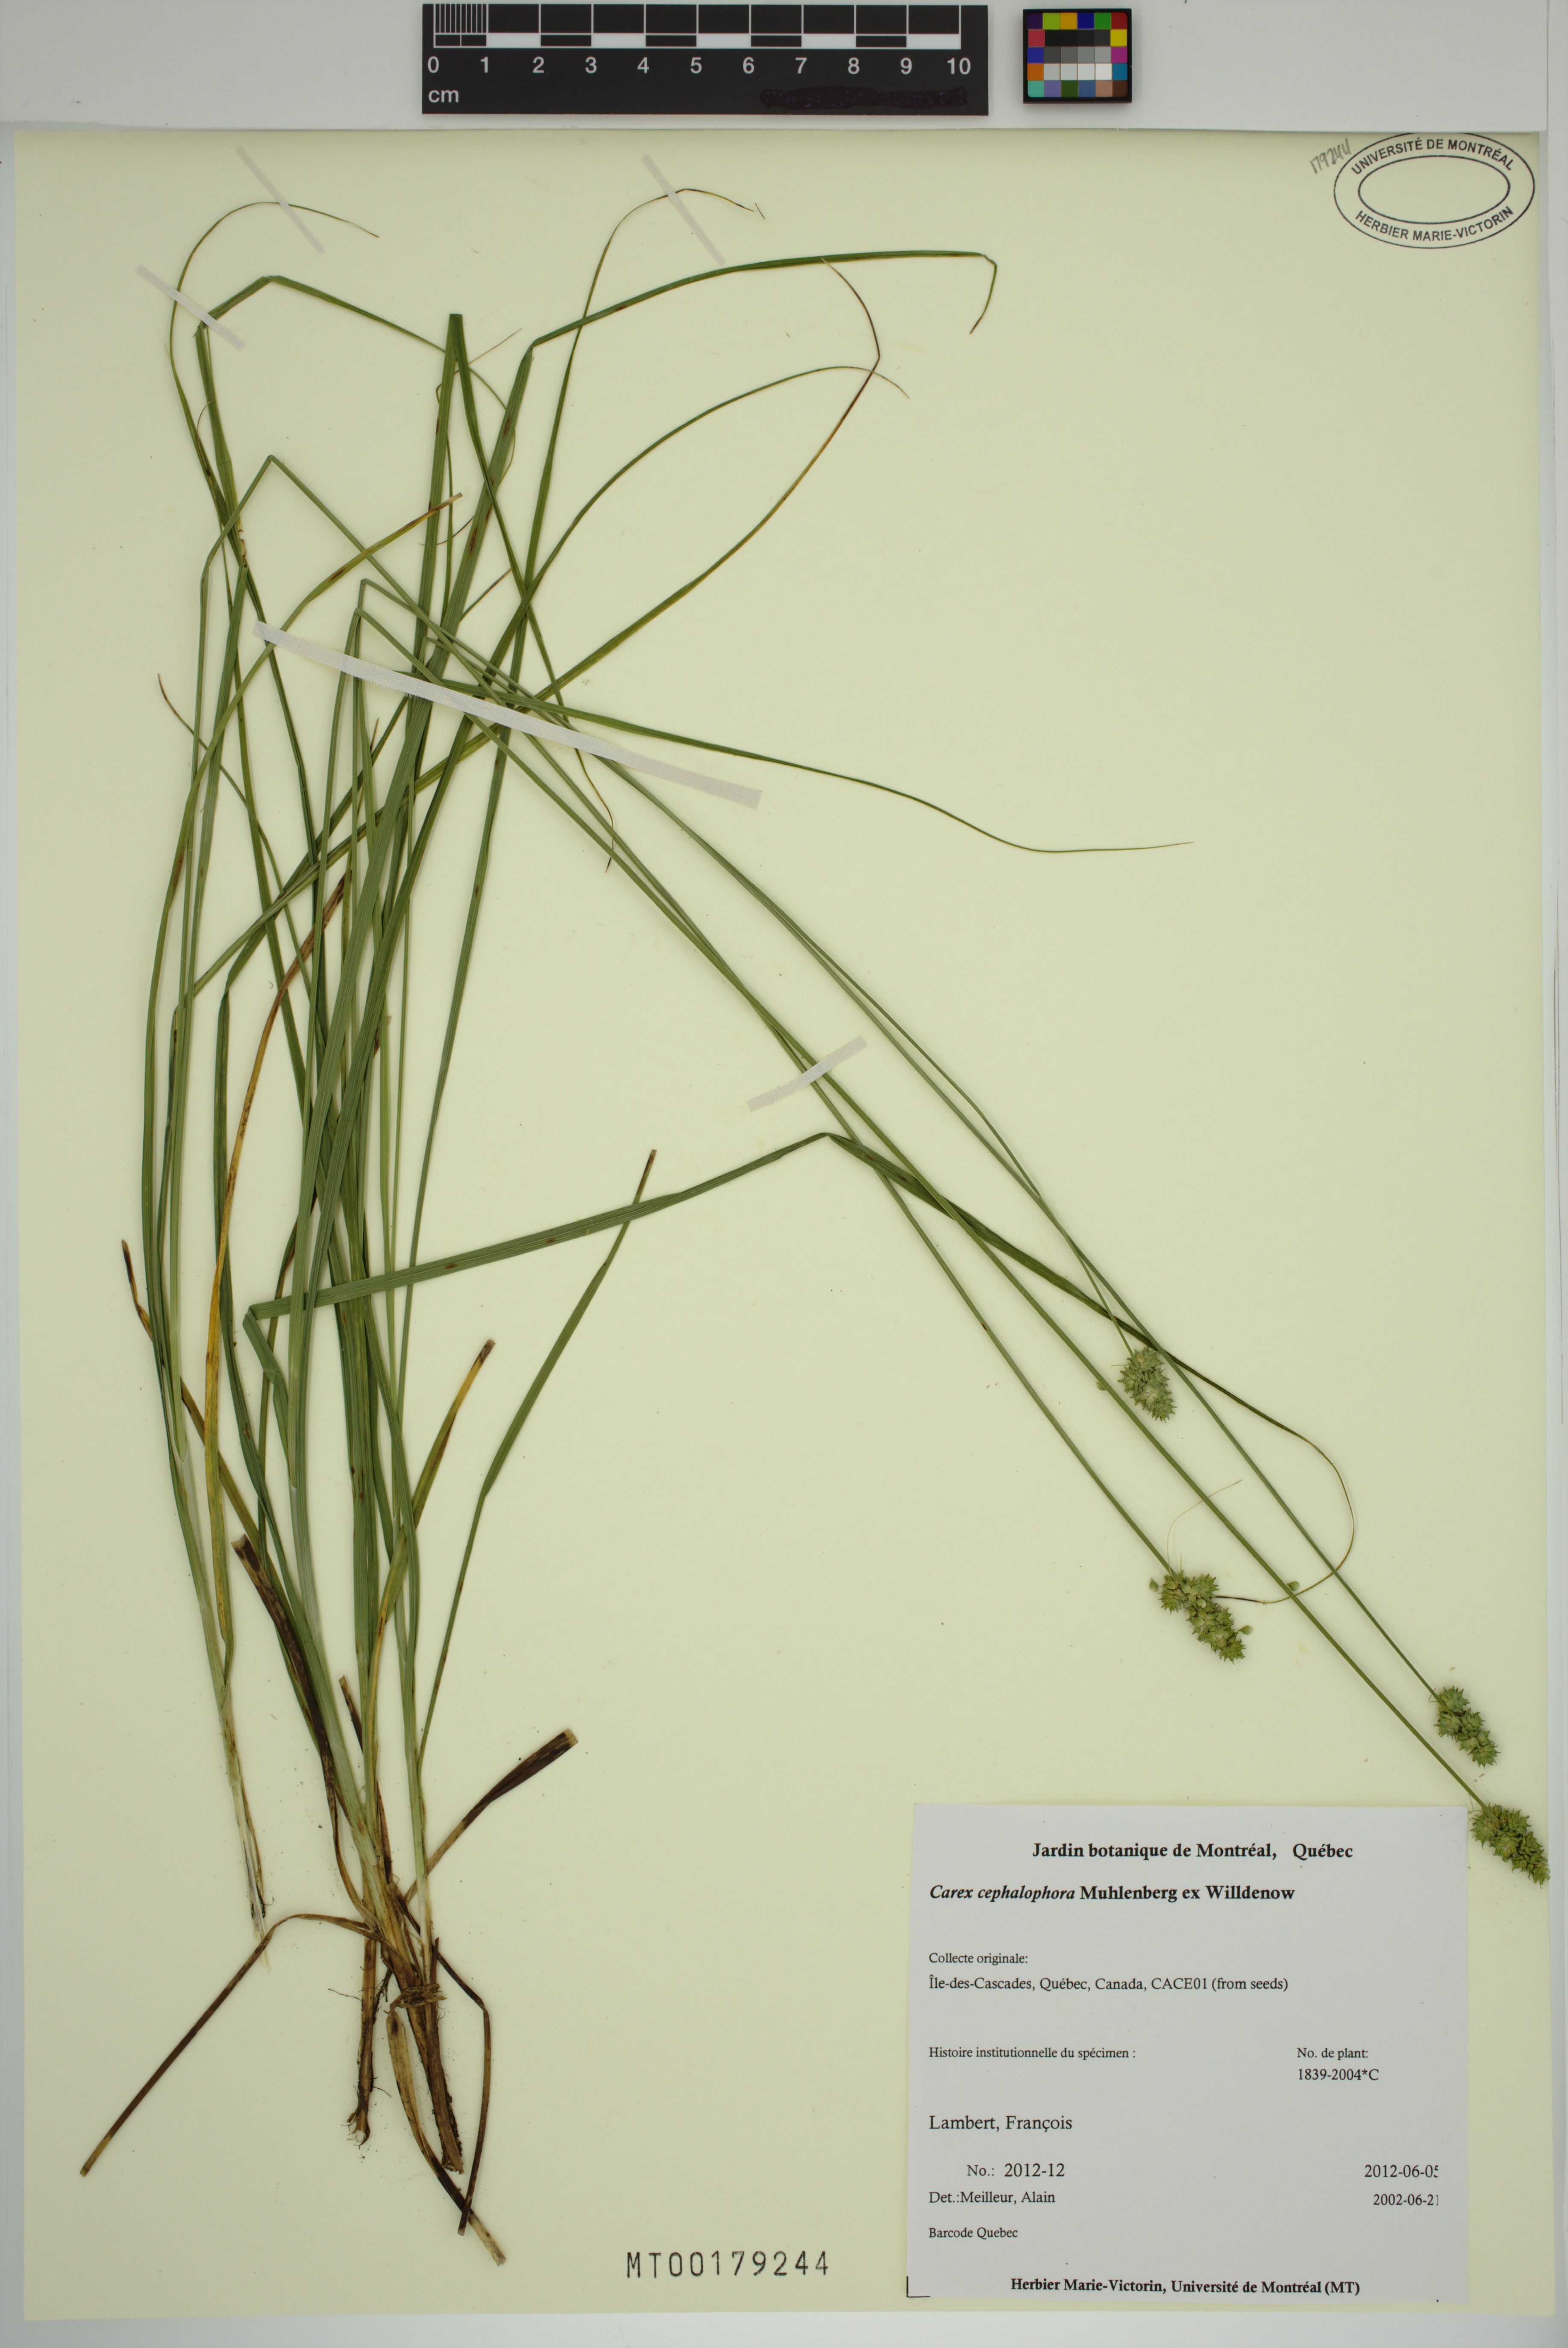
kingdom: Plantae
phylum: Tracheophyta
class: Liliopsida
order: Poales
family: Cyperaceae
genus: Carex
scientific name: Carex cephalophora
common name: Oval-headed sedge
